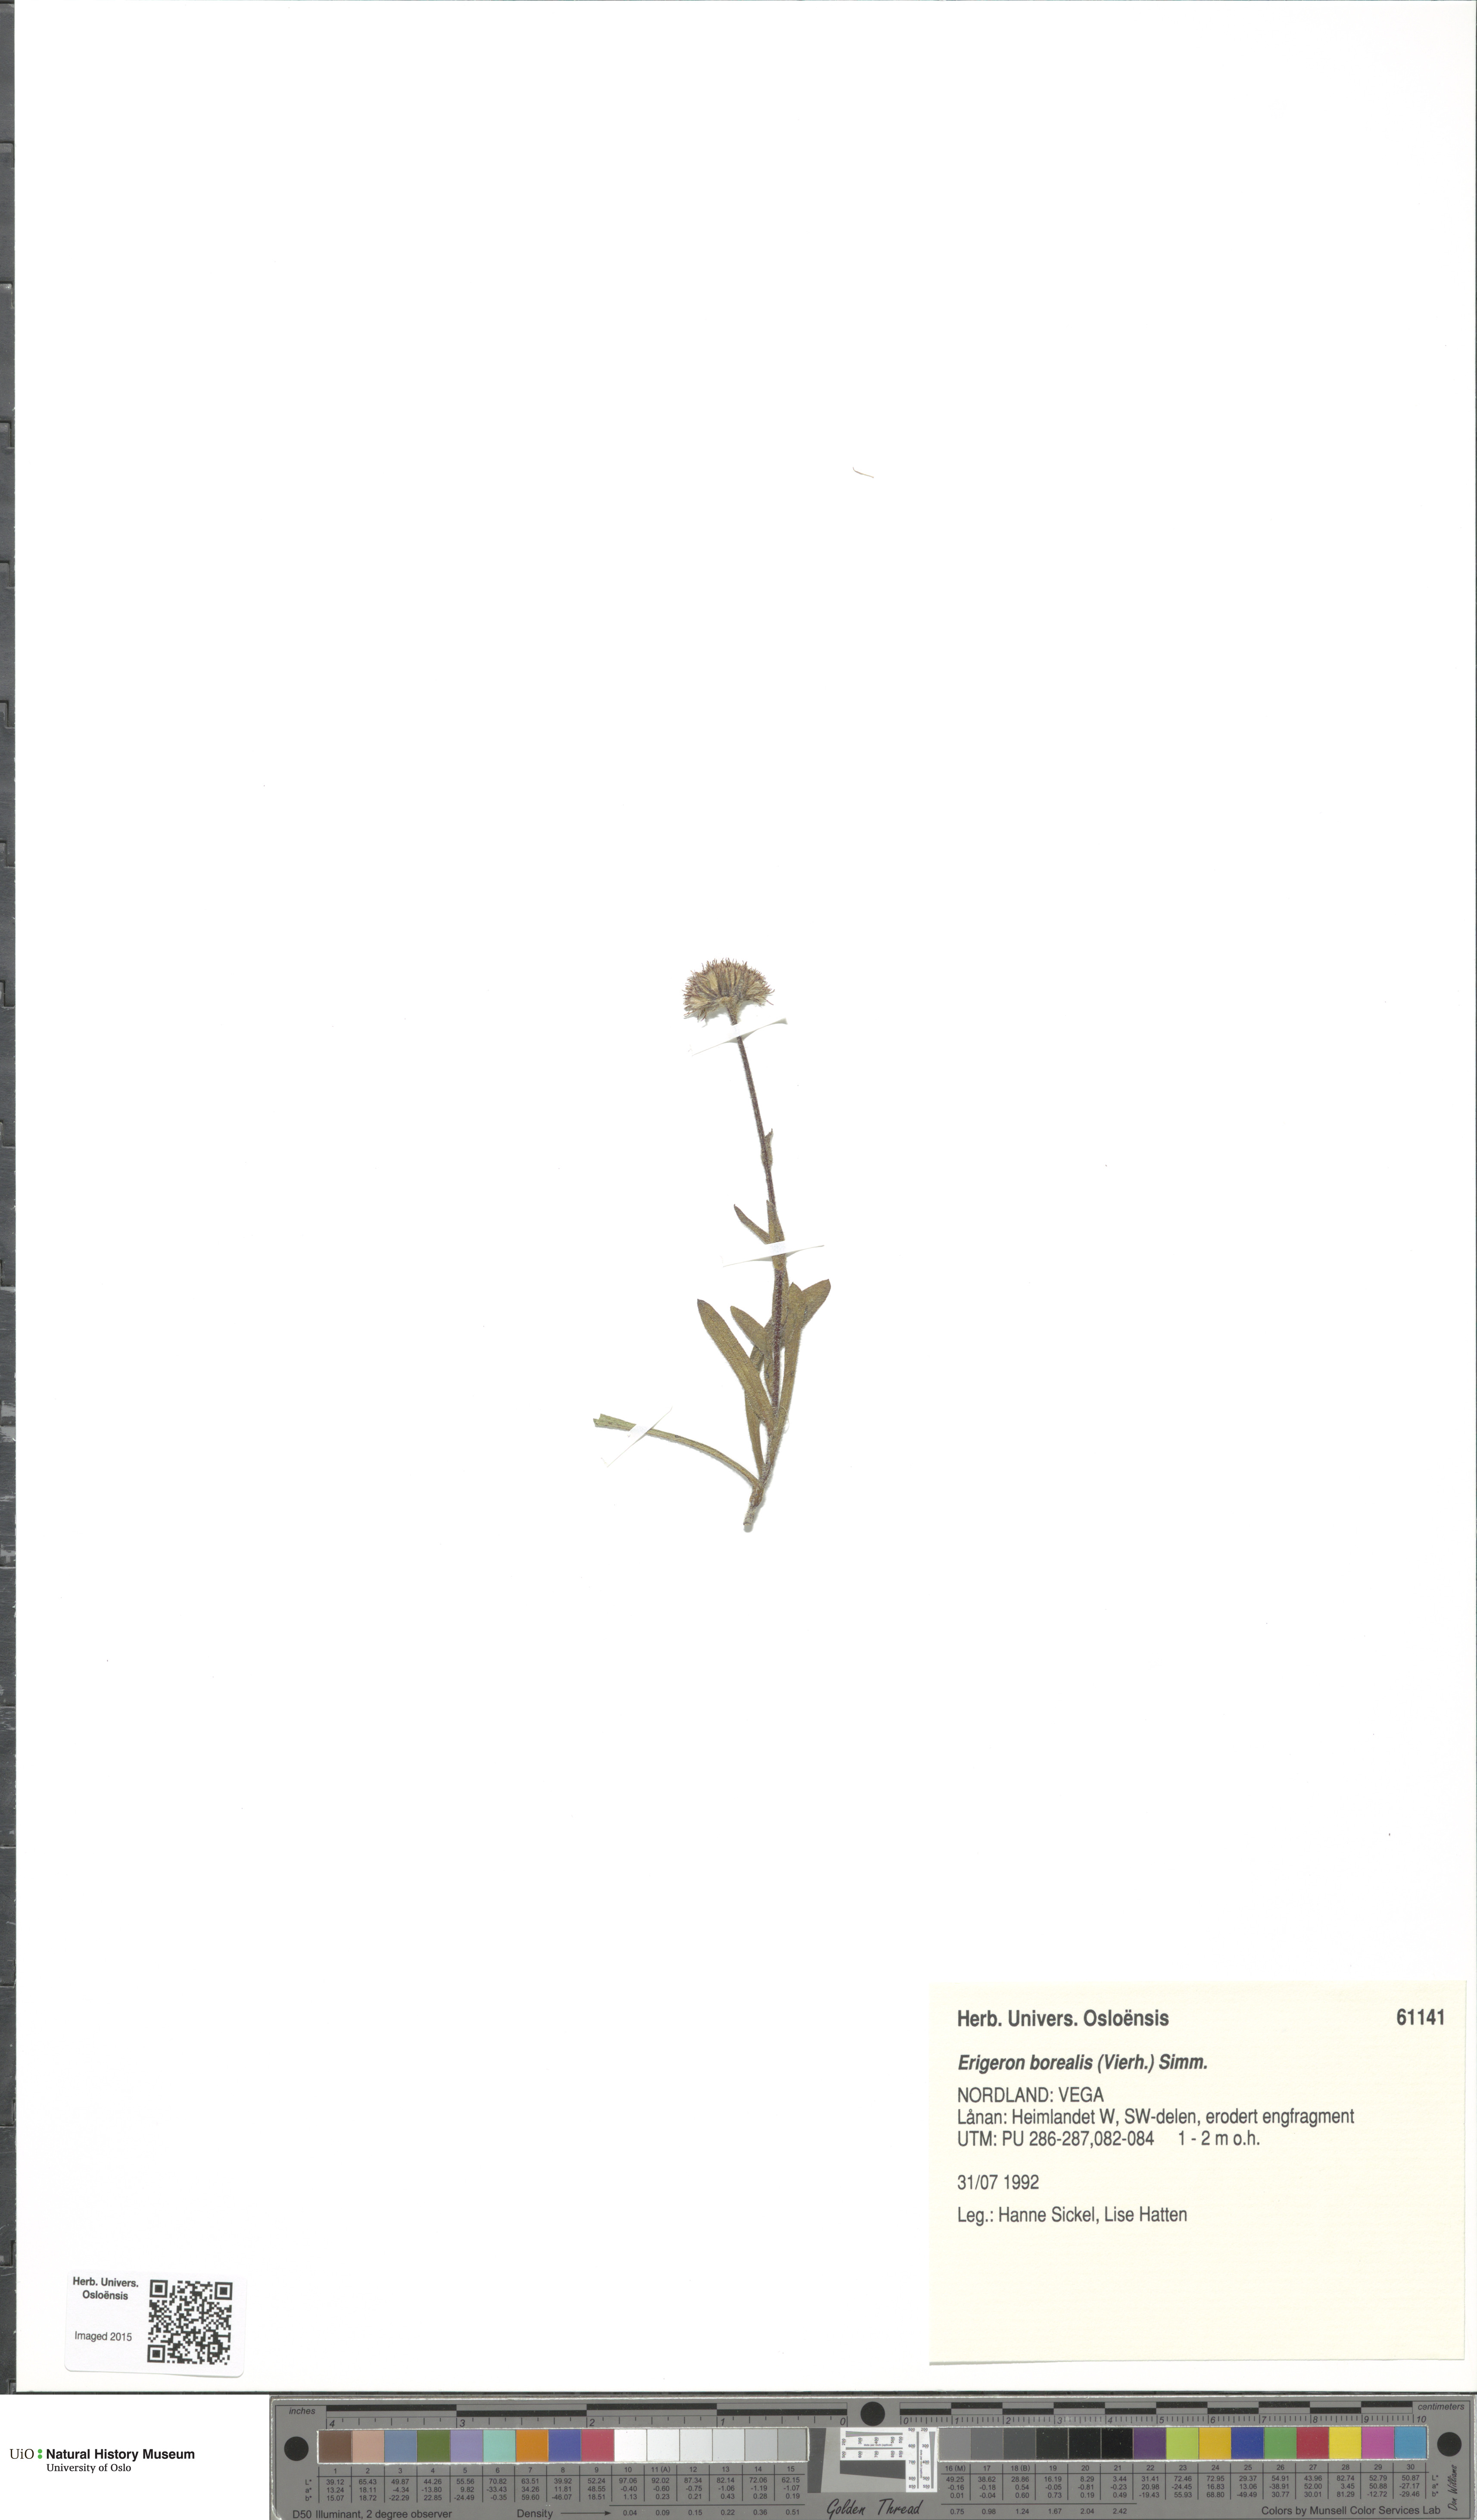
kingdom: Plantae
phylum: Tracheophyta
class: Magnoliopsida
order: Asterales
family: Asteraceae
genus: Erigeron
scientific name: Erigeron borealis
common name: Alpine fleabane
